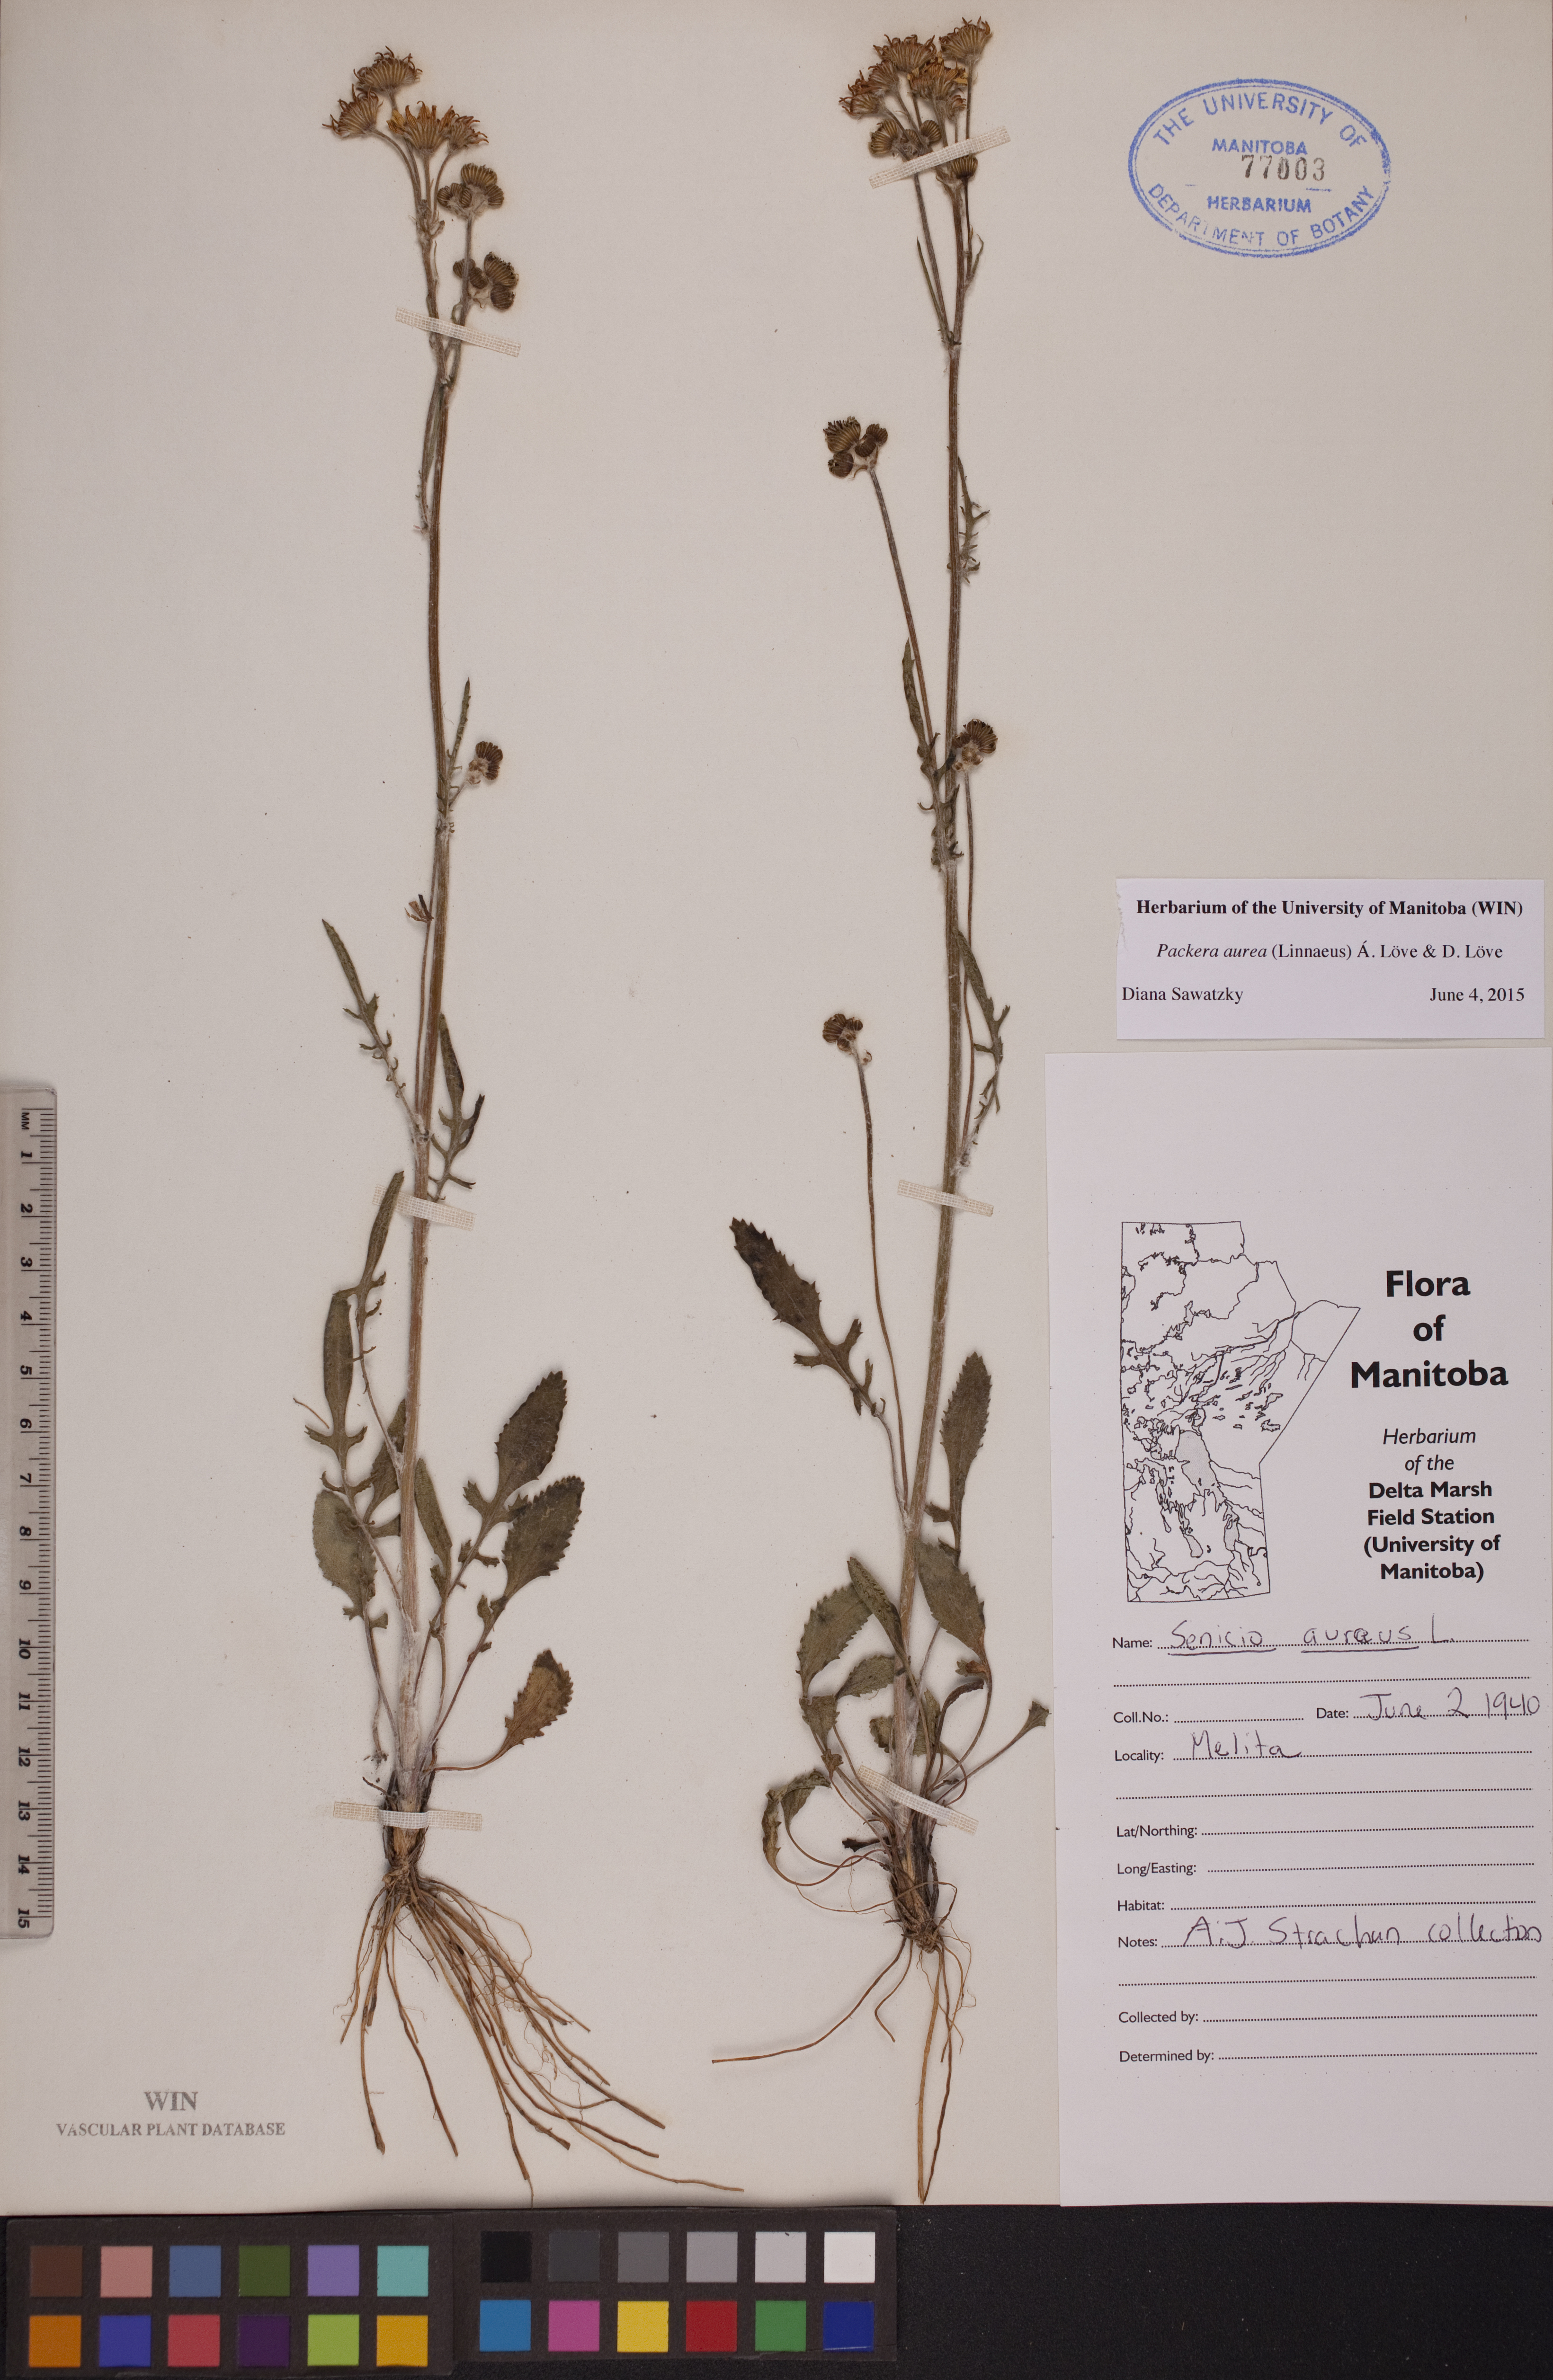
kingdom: Plantae
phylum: Tracheophyta
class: Magnoliopsida
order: Asterales
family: Asteraceae
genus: Packera
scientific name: Packera aurea
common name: Golden groundsel
